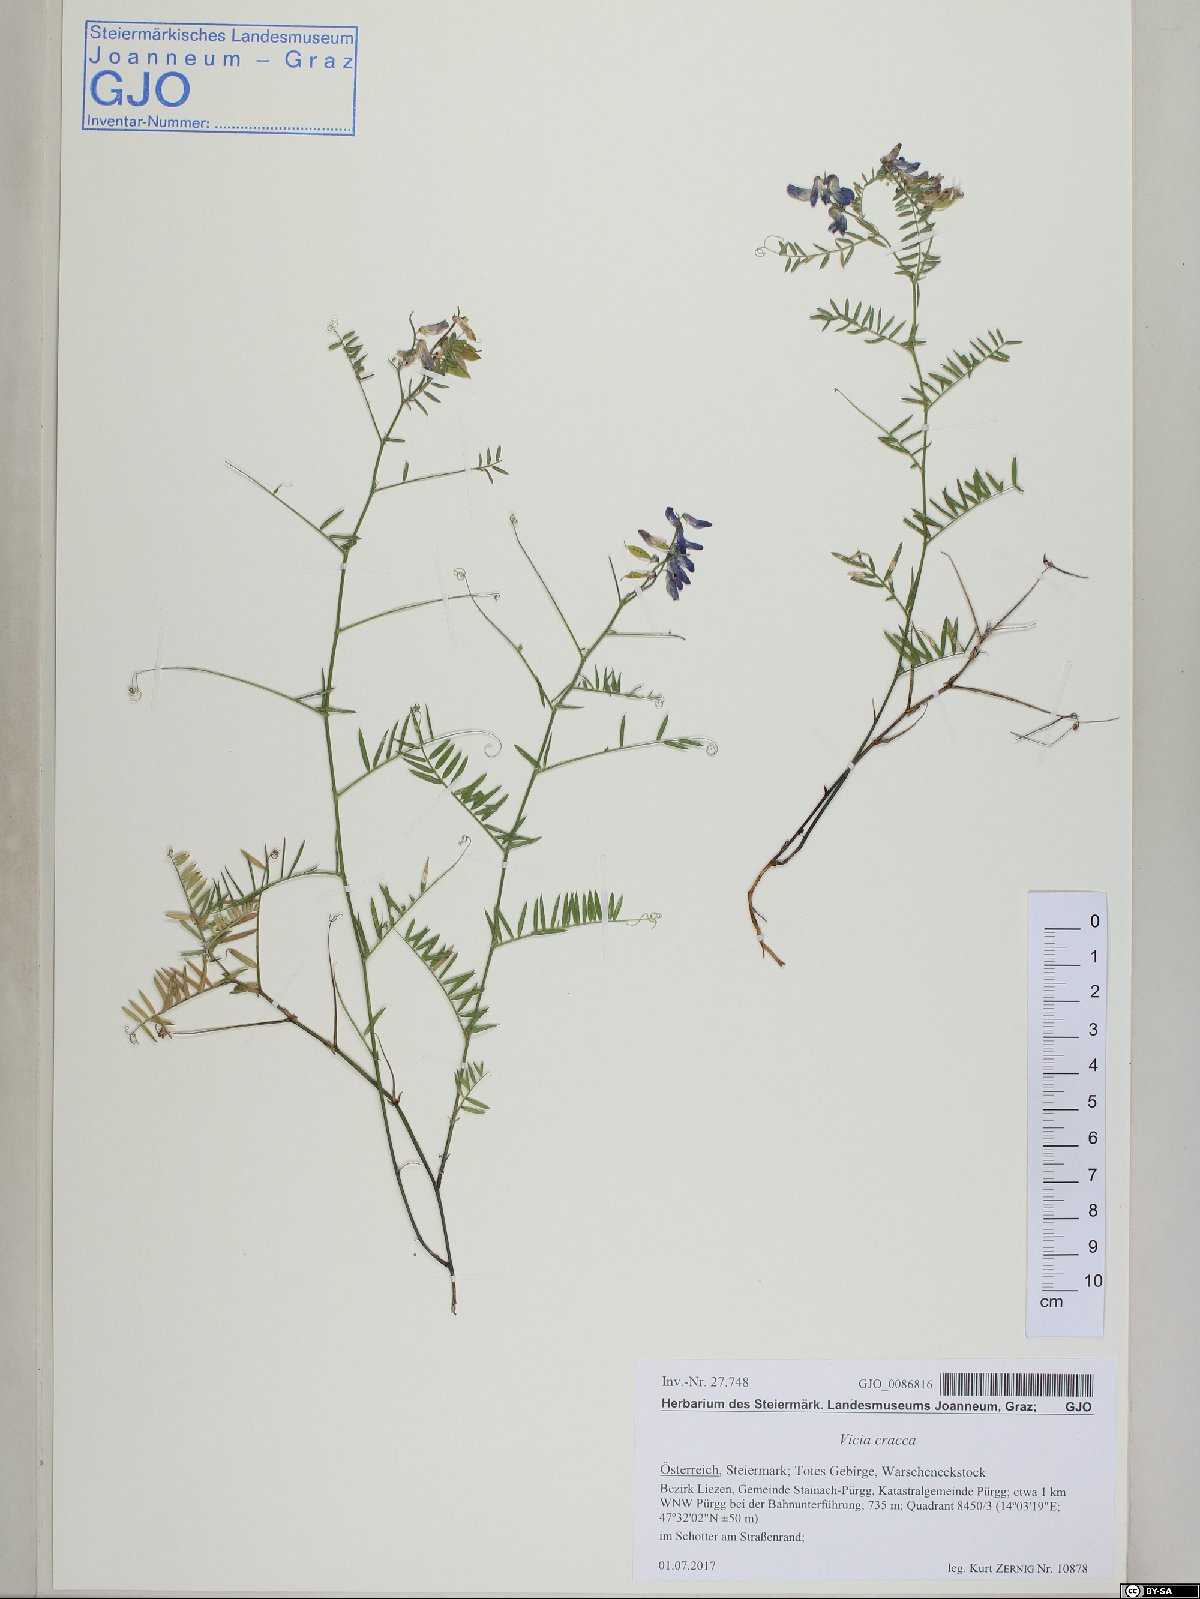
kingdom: Plantae
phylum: Tracheophyta
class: Magnoliopsida
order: Fabales
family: Fabaceae
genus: Vicia
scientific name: Vicia cracca
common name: Bird vetch
